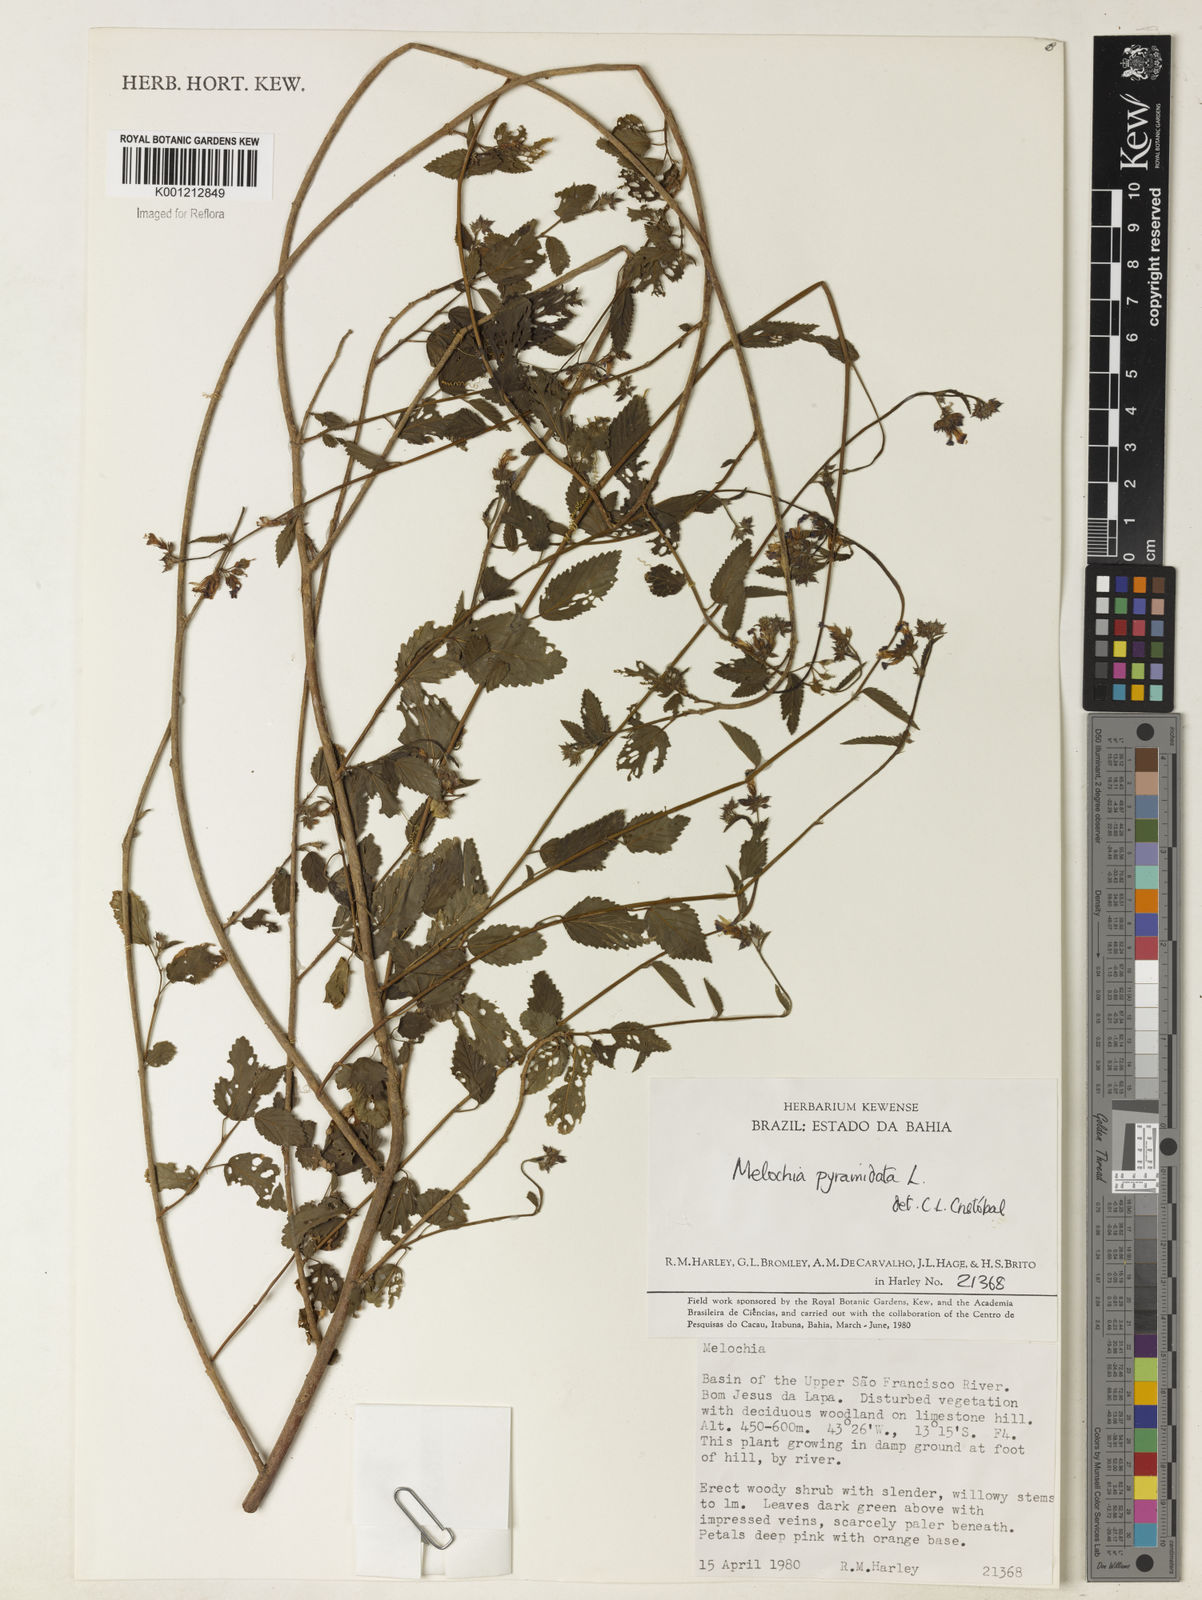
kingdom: Plantae
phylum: Tracheophyta
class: Magnoliopsida
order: Malvales
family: Malvaceae
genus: Melochia
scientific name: Melochia pyramidata
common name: Pyramidflower
